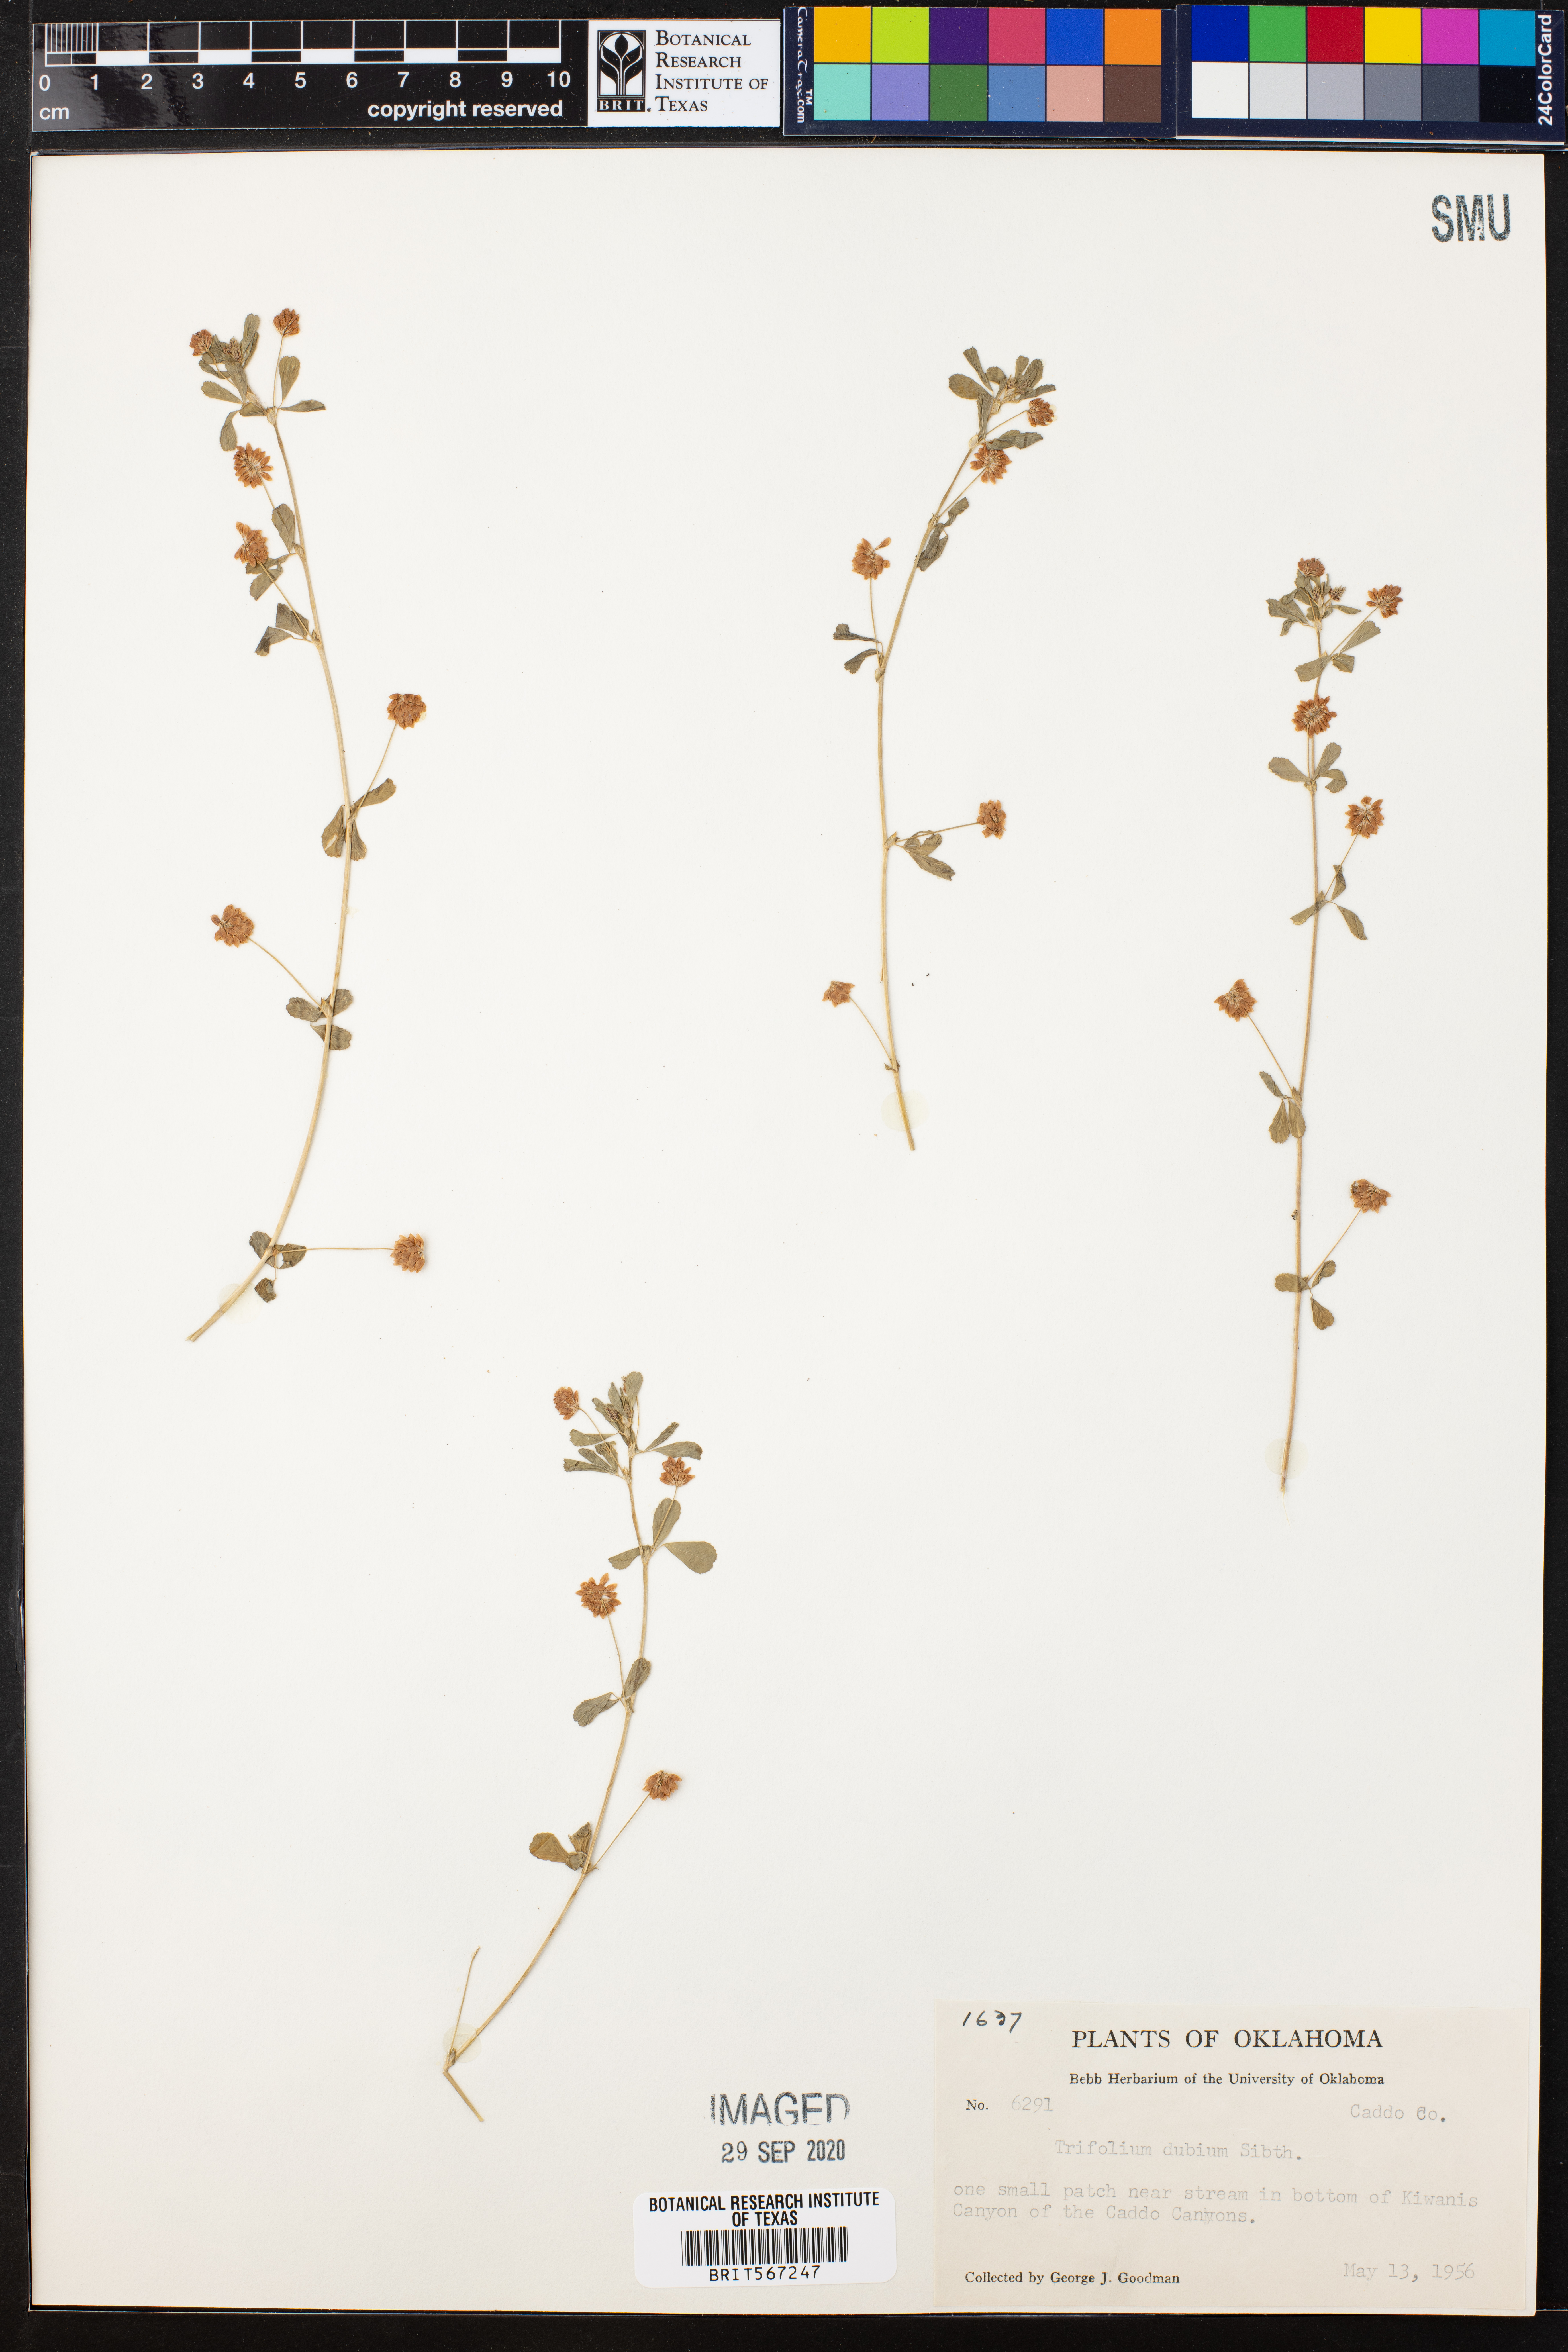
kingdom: Plantae
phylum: Tracheophyta
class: Magnoliopsida
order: Fabales
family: Fabaceae
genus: Trifolium
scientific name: Trifolium dubium
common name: Suckling clover
